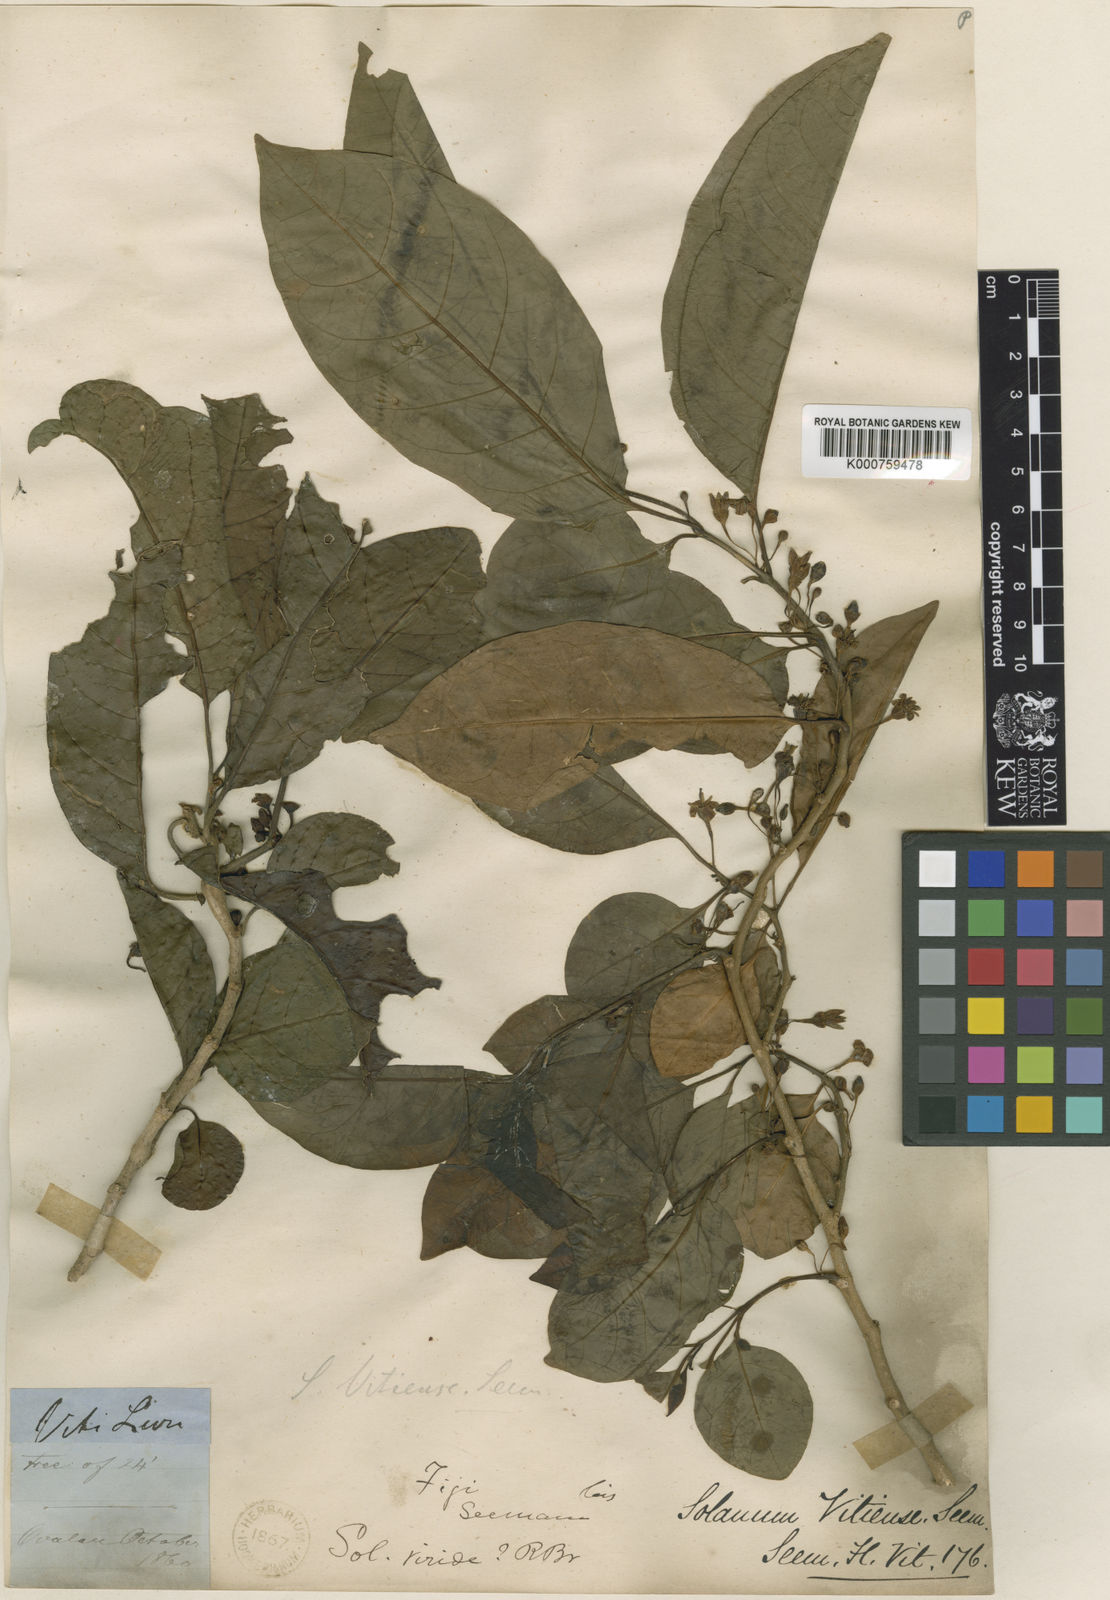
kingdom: Plantae
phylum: Tracheophyta
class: Magnoliopsida
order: Solanales
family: Solanaceae
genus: Lycianthes
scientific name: Lycianthes vitiensis
